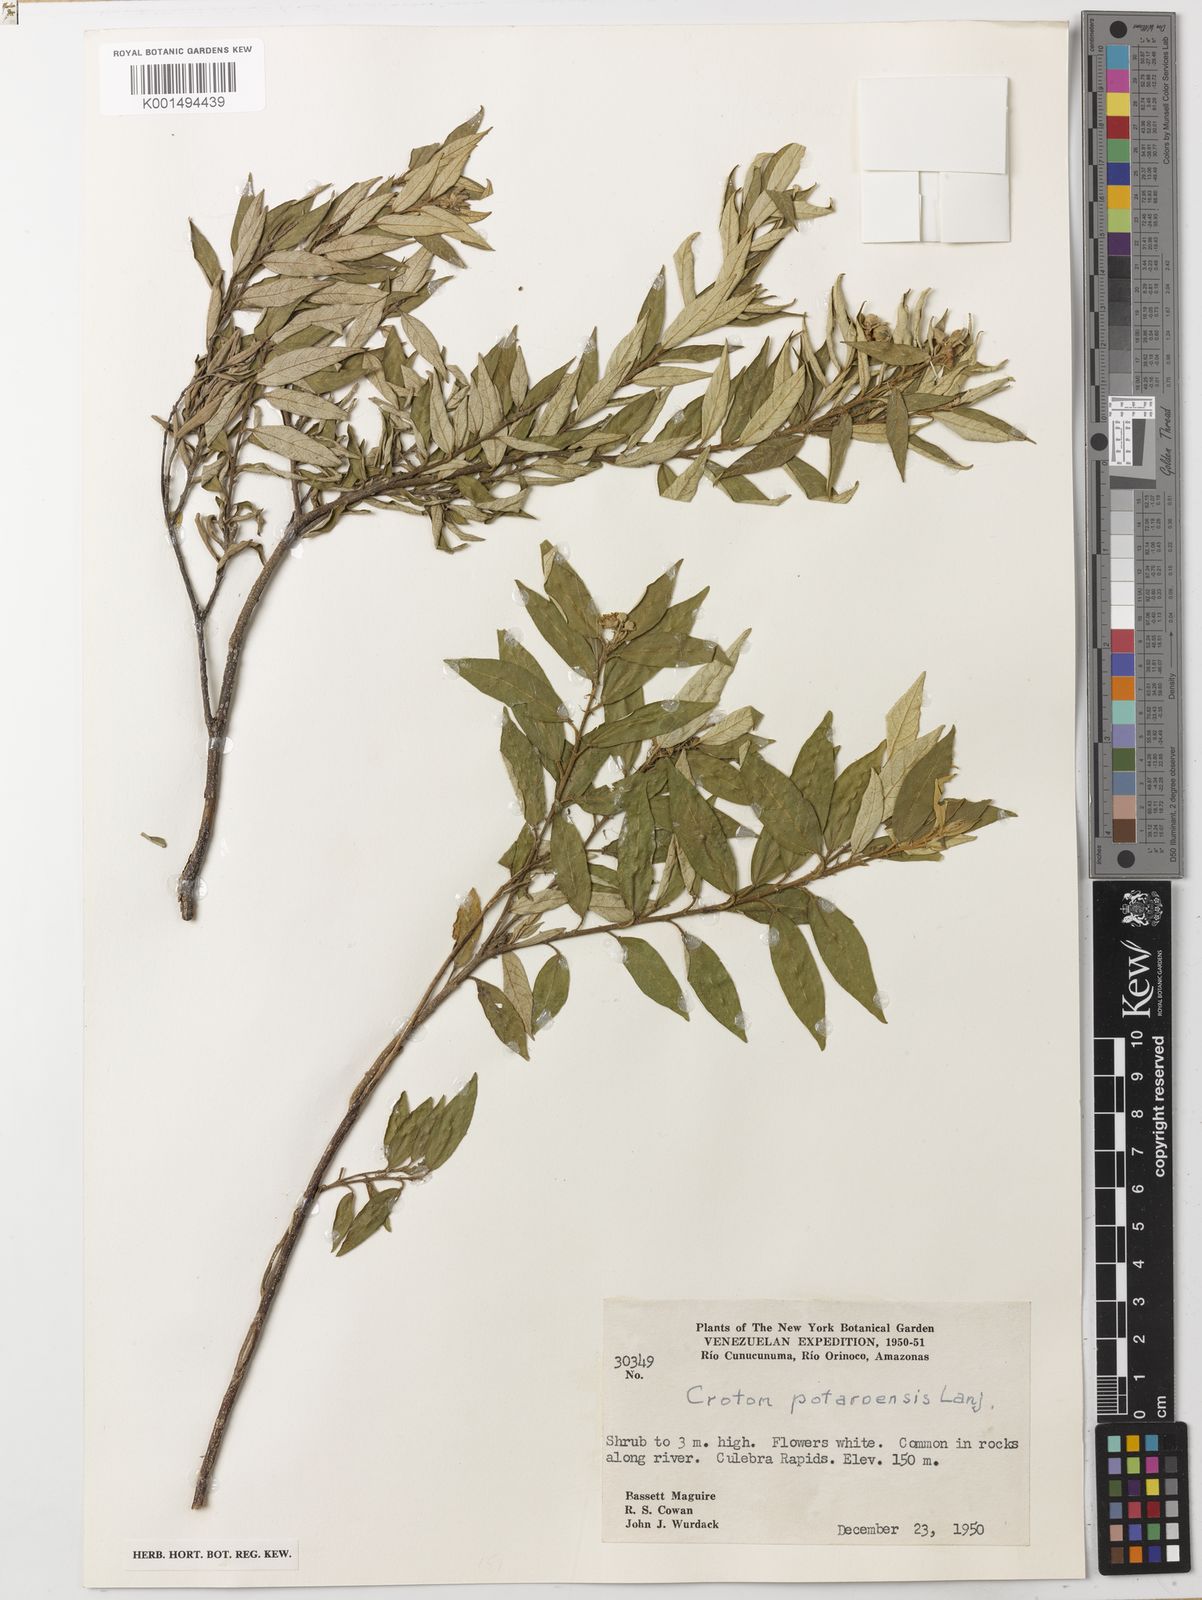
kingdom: Plantae
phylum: Tracheophyta
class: Magnoliopsida
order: Malpighiales
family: Euphorbiaceae
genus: Croton
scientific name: Croton potaroensis
